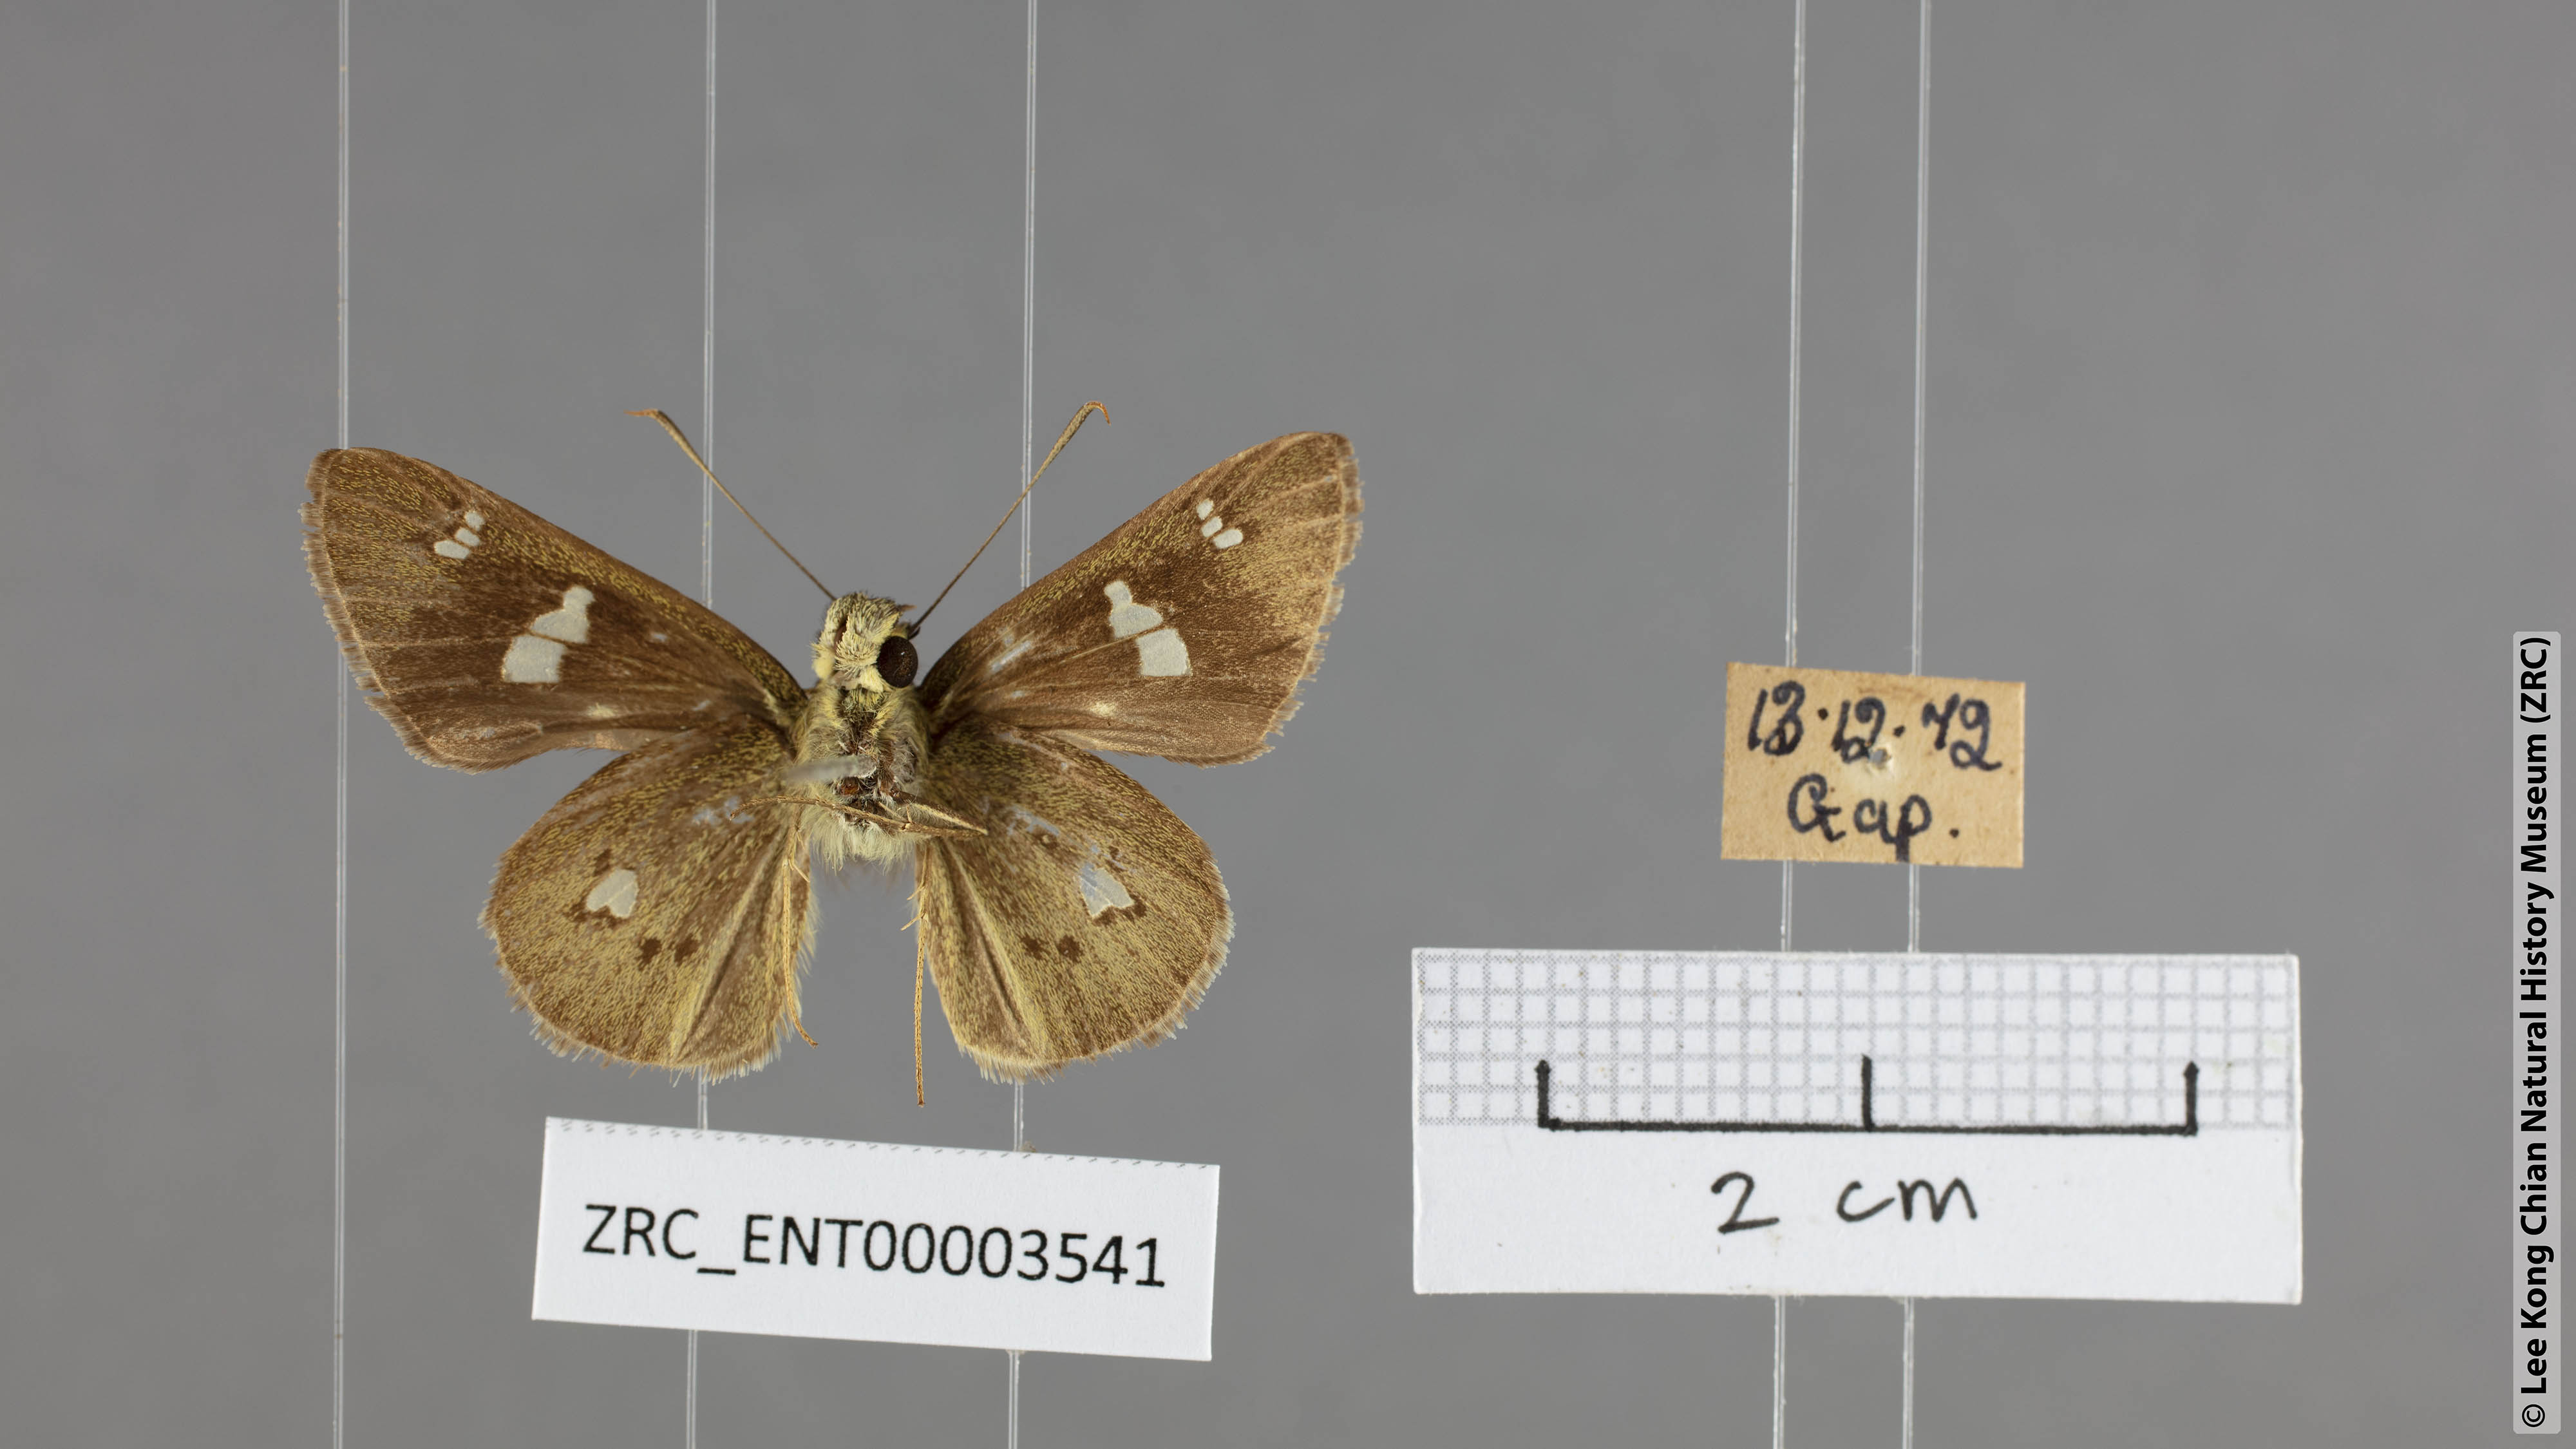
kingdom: Animalia
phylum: Arthropoda
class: Insecta
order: Lepidoptera
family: Hesperiidae
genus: Scobura
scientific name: Scobura phiditia
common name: Malay forest bob
